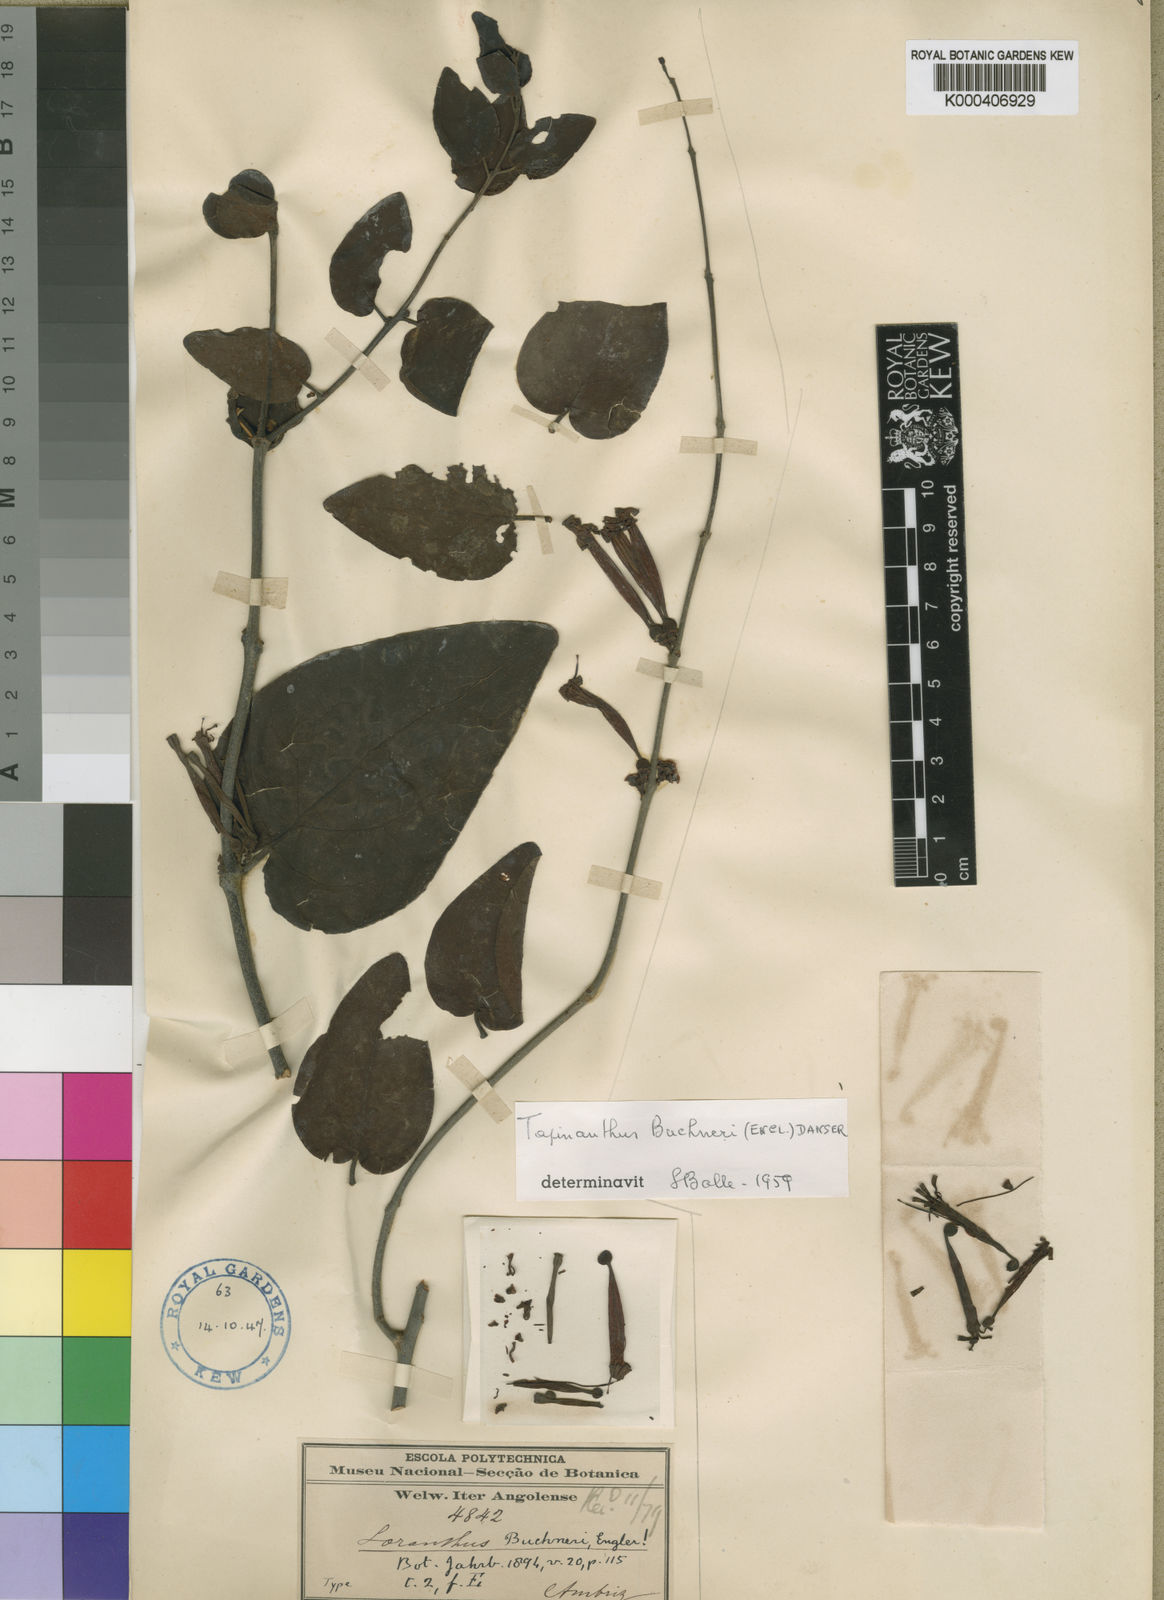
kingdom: Plantae
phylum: Tracheophyta
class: Magnoliopsida
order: Santalales
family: Loranthaceae
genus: Tapinanthus
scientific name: Tapinanthus buchneri
